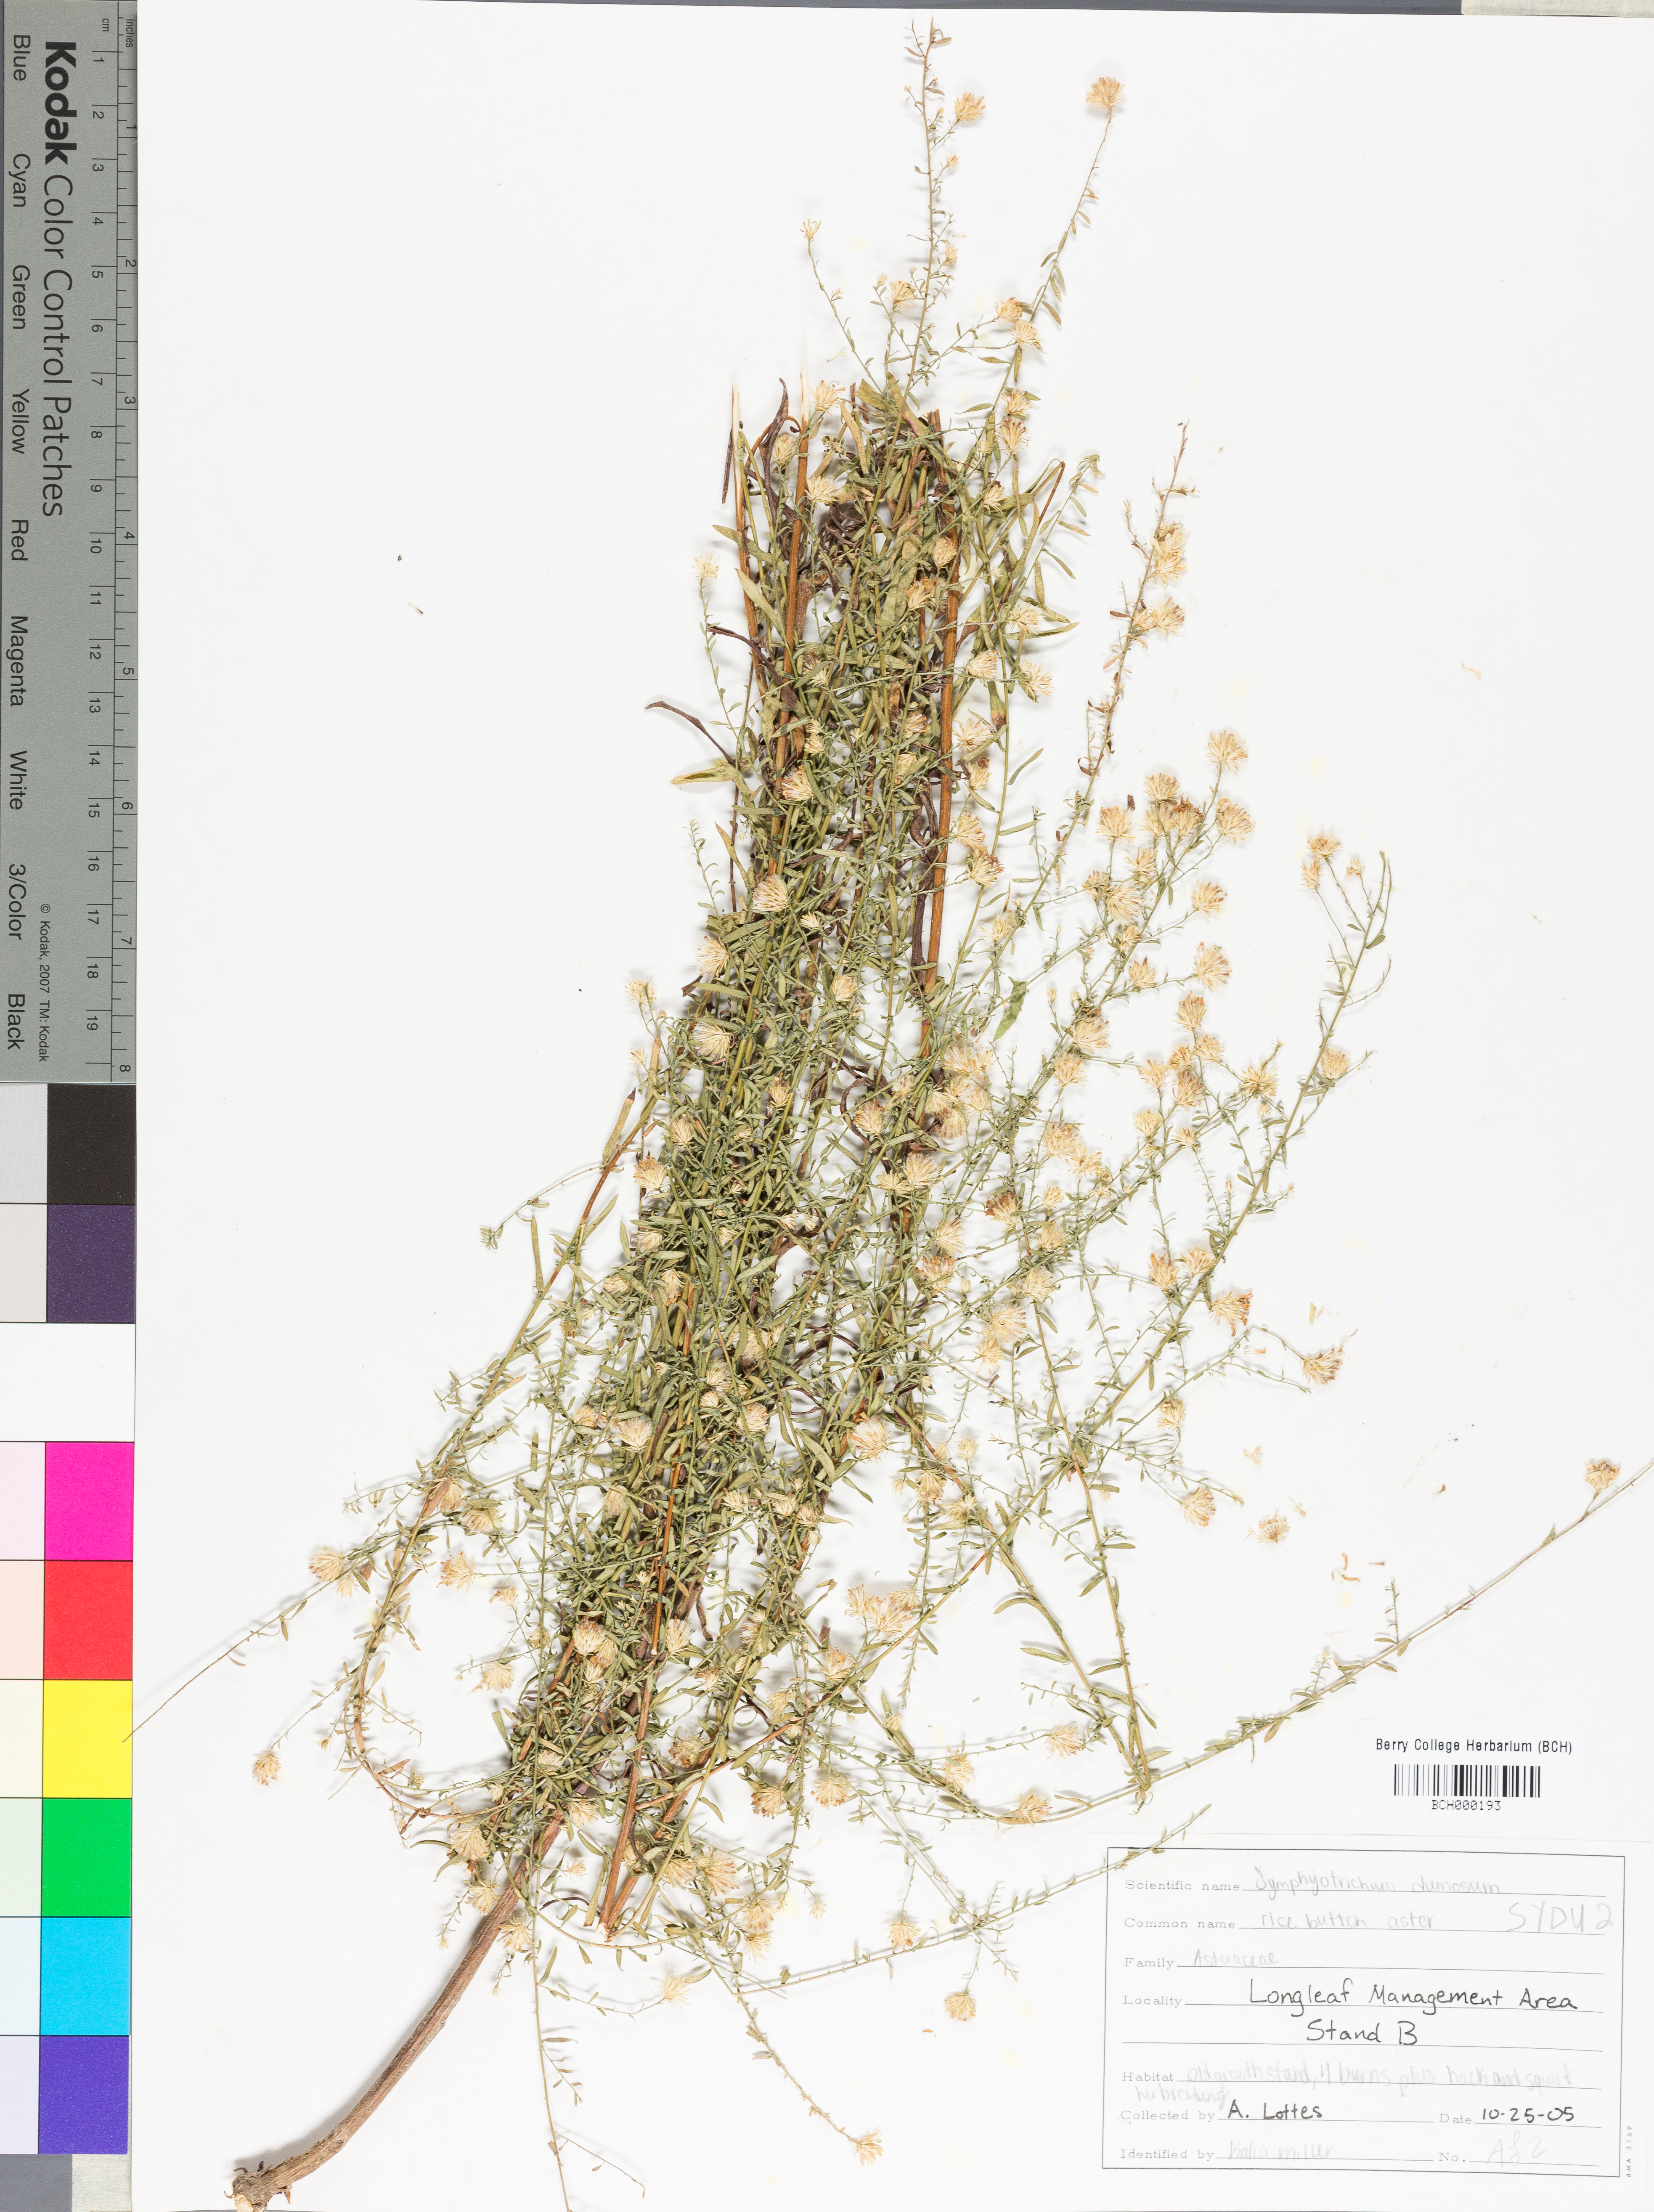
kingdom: Plantae
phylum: Tracheophyta
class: Magnoliopsida
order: Asterales
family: Asteraceae
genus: Symphyotrichum
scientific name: Symphyotrichum dumosum
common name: Bushy aster
